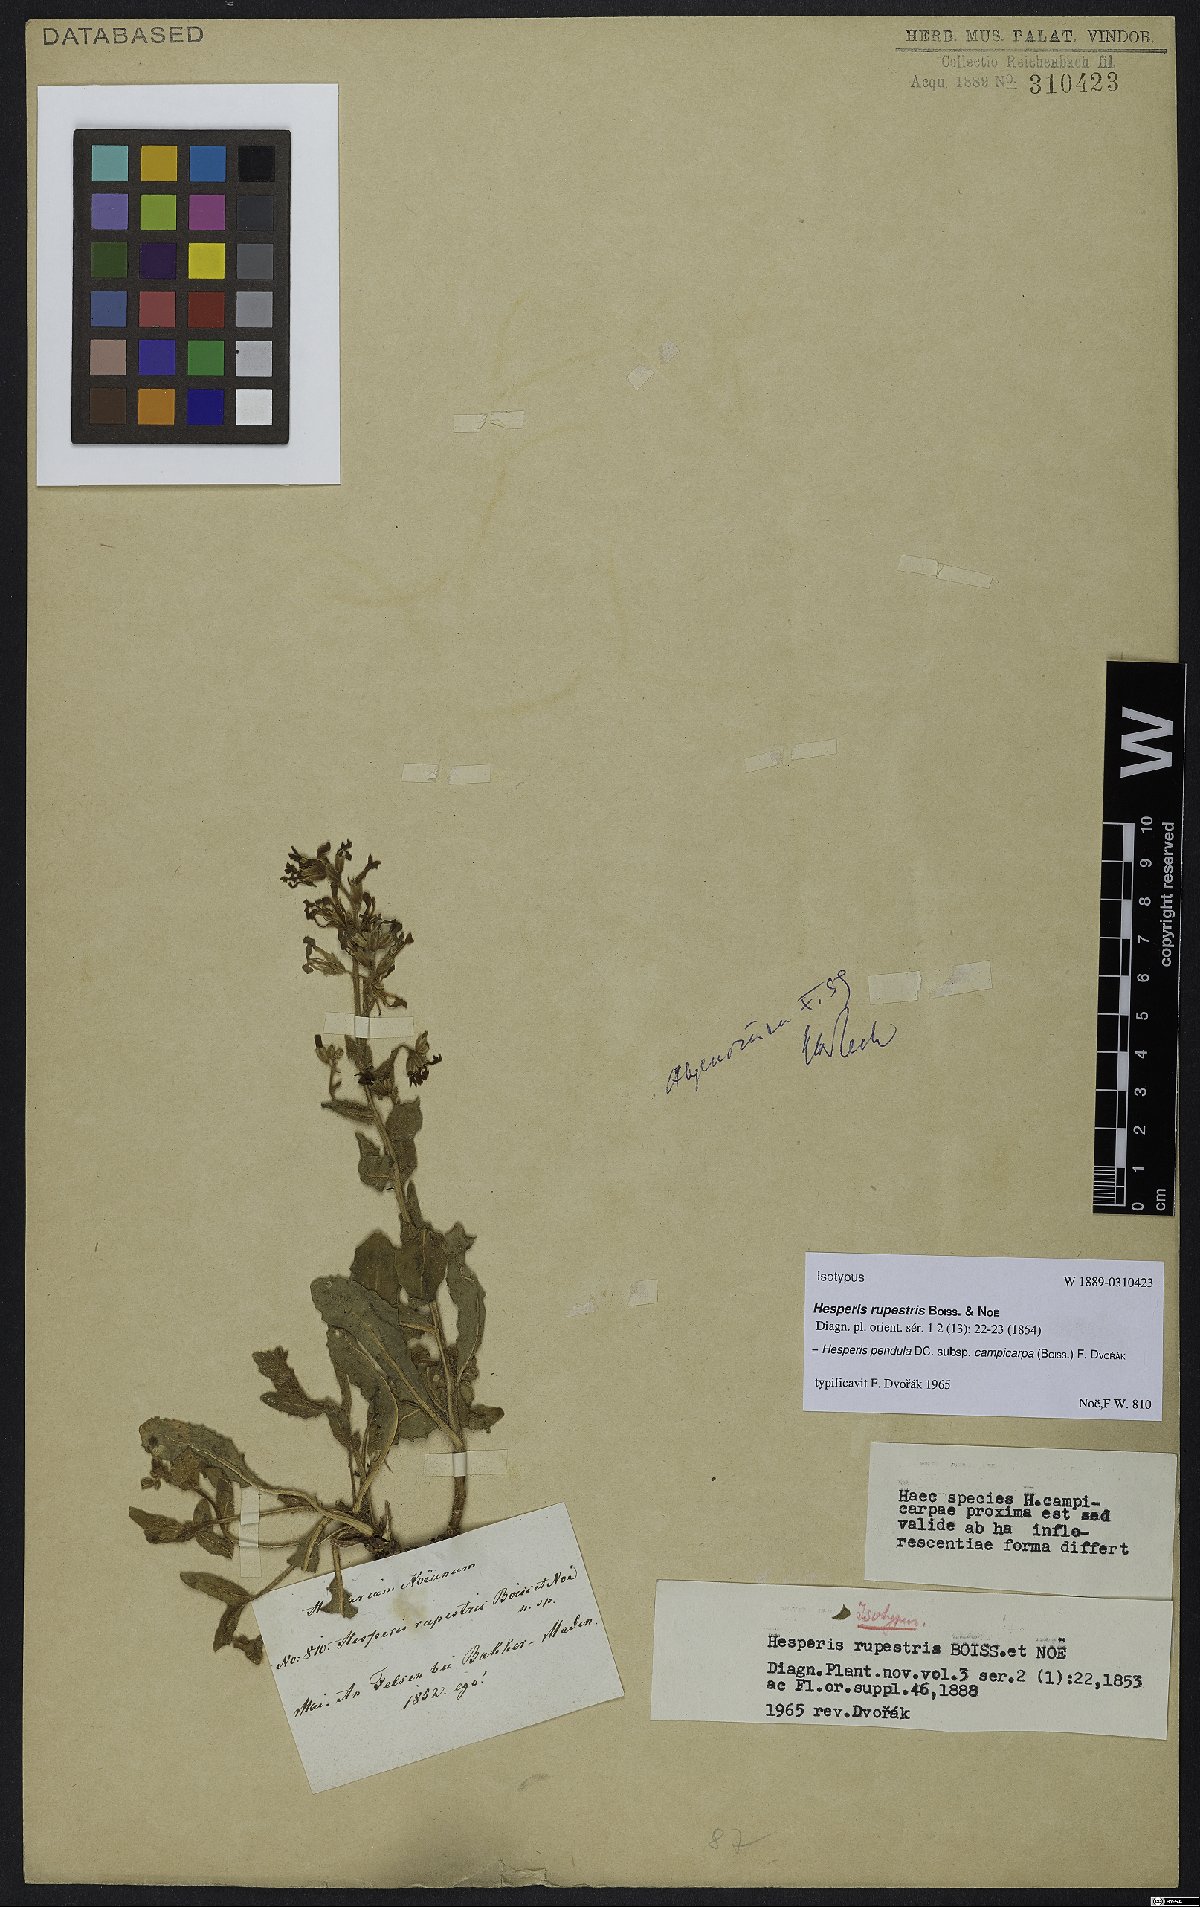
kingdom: Plantae
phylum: Tracheophyta
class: Magnoliopsida
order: Brassicales
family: Brassicaceae
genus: Hesperis
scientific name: Hesperis pendula
